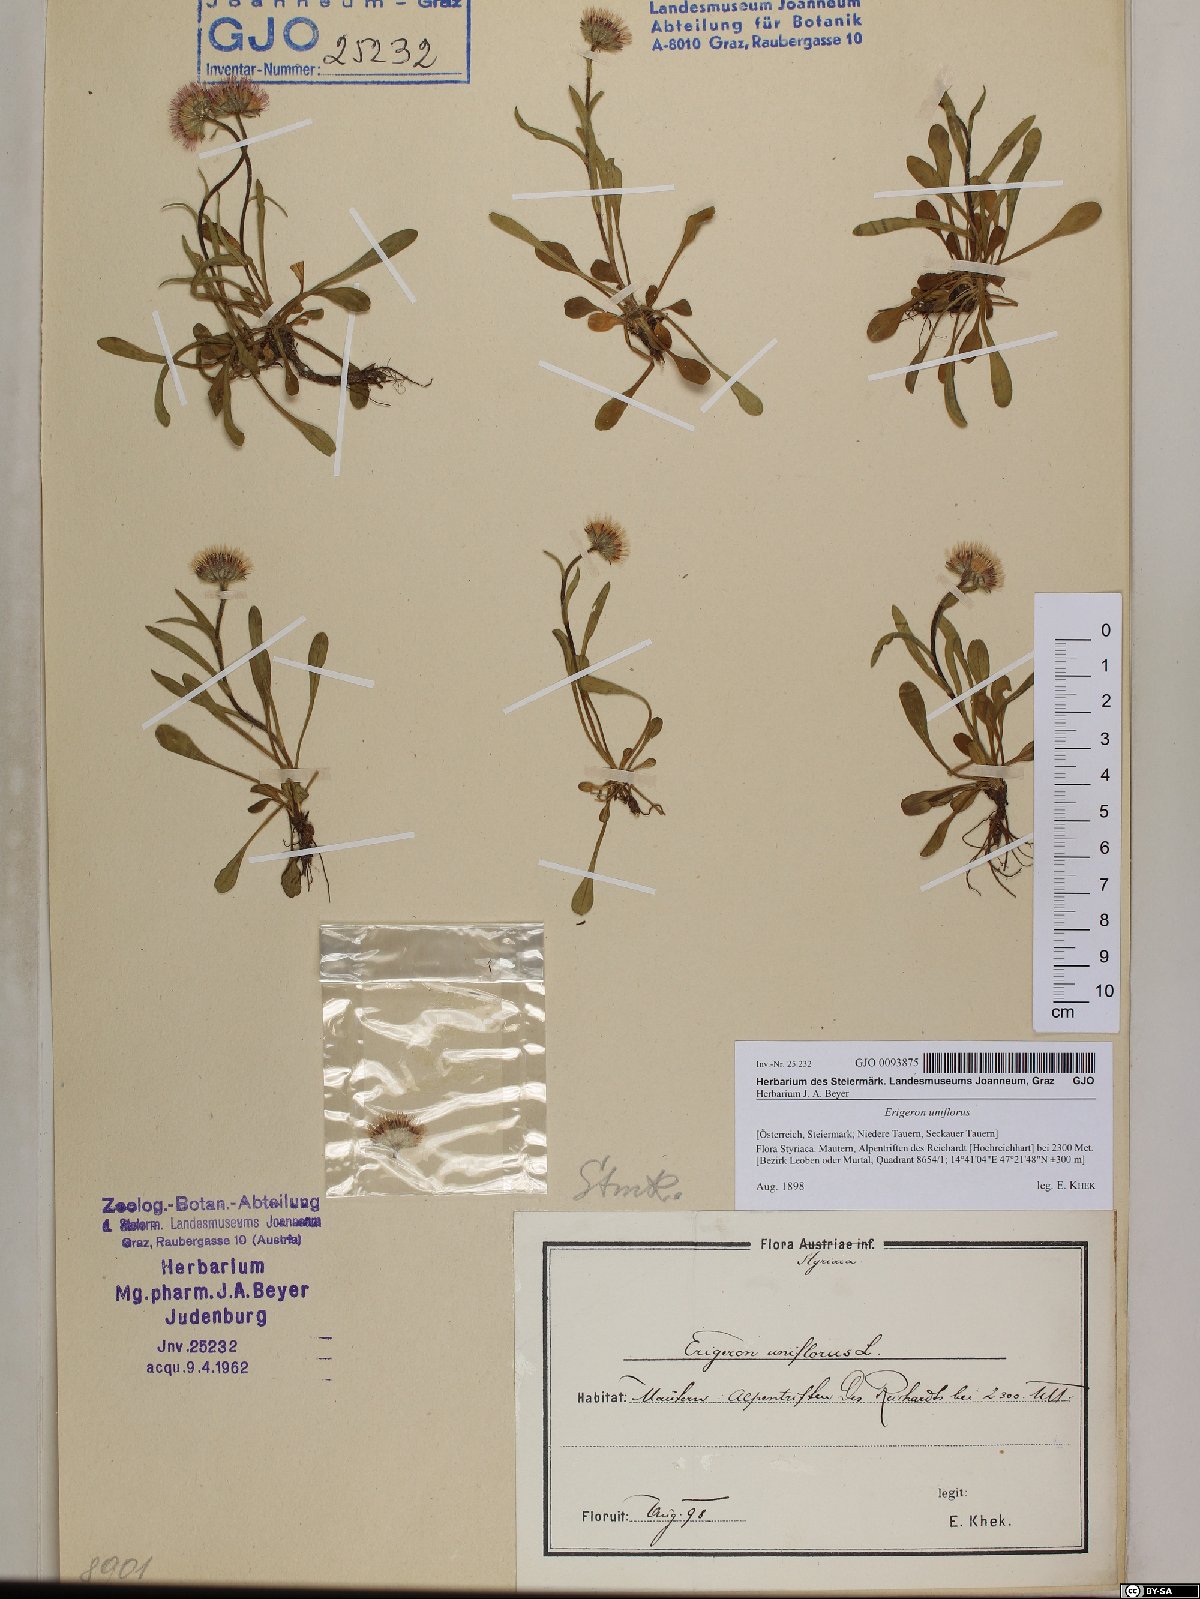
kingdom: Plantae
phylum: Tracheophyta
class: Magnoliopsida
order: Asterales
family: Asteraceae
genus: Erigeron
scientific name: Erigeron uniflorus
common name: Northern daisy
